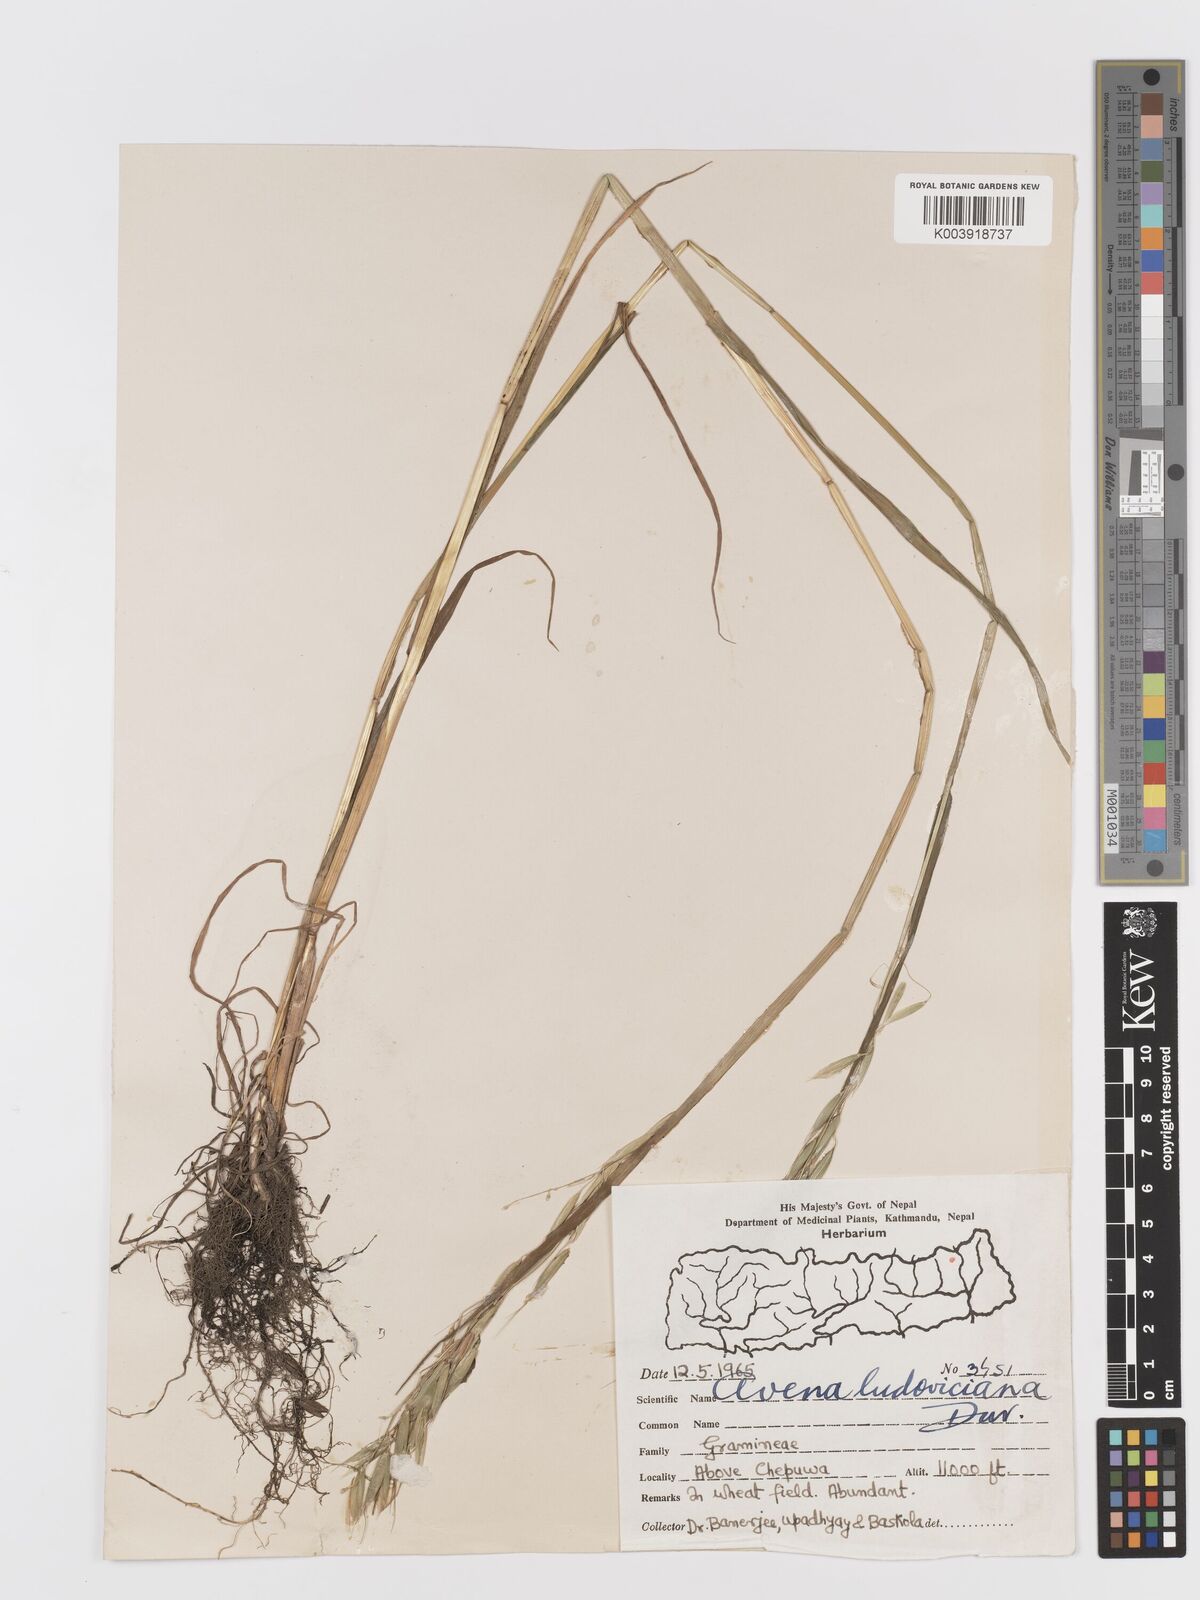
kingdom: Plantae
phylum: Tracheophyta
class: Liliopsida
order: Poales
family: Poaceae
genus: Avena
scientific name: Avena sterilis
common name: Animated oat
